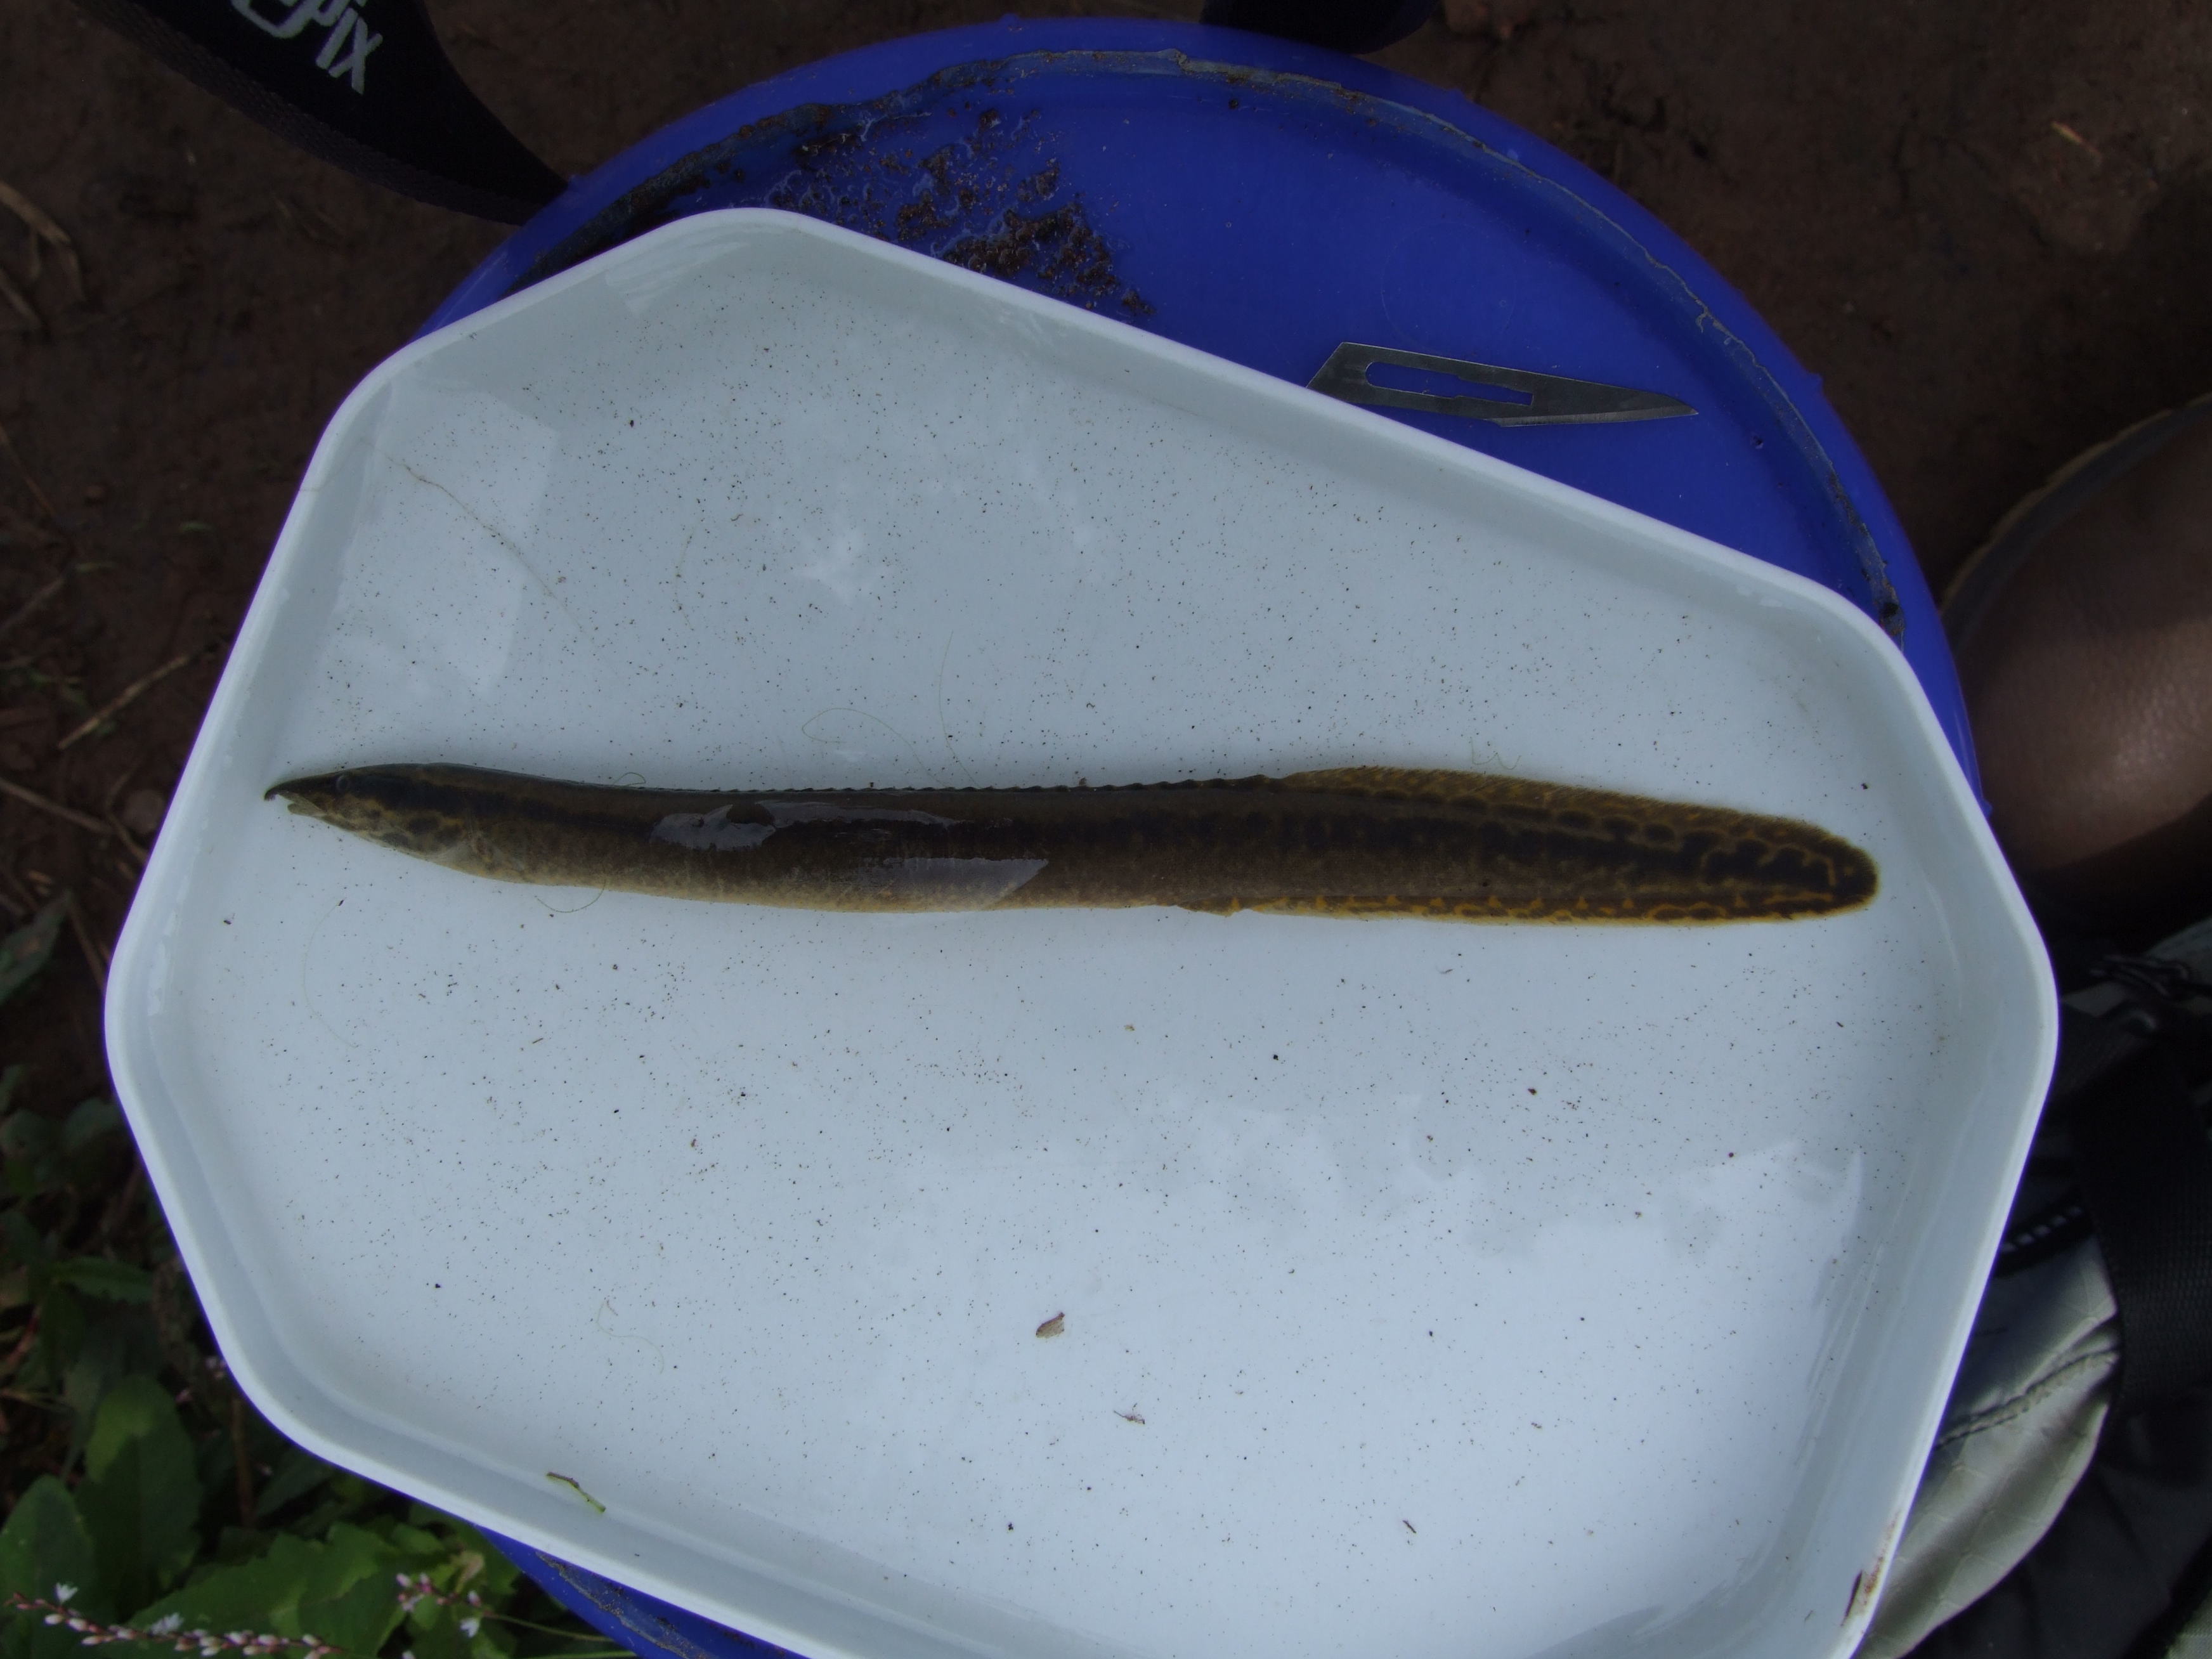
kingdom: Animalia
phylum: Chordata
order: Synbranchiformes
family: Mastacembelidae
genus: Mastacembelus
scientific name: Mastacembelus frenatus
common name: East african spiny eel
